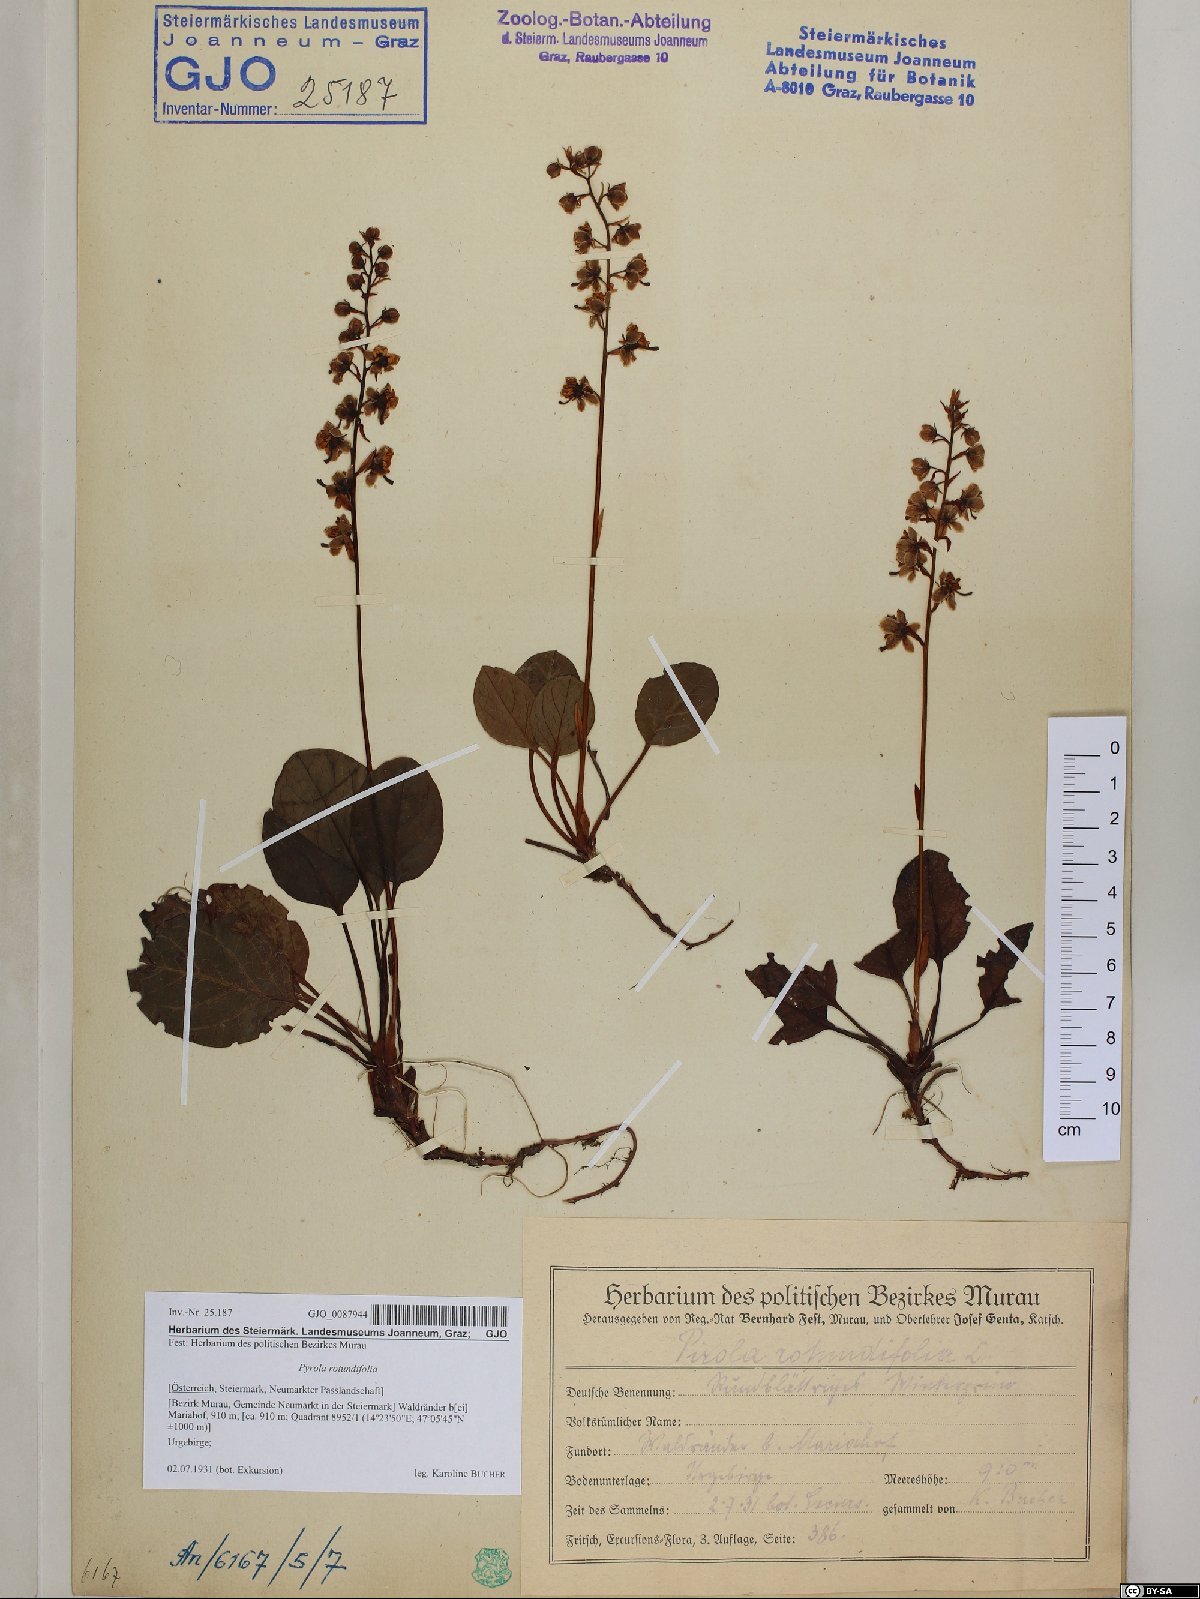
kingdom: Plantae
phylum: Tracheophyta
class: Magnoliopsida
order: Ericales
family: Ericaceae
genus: Pyrola
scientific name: Pyrola rotundifolia
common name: Round-leaved wintergreen
